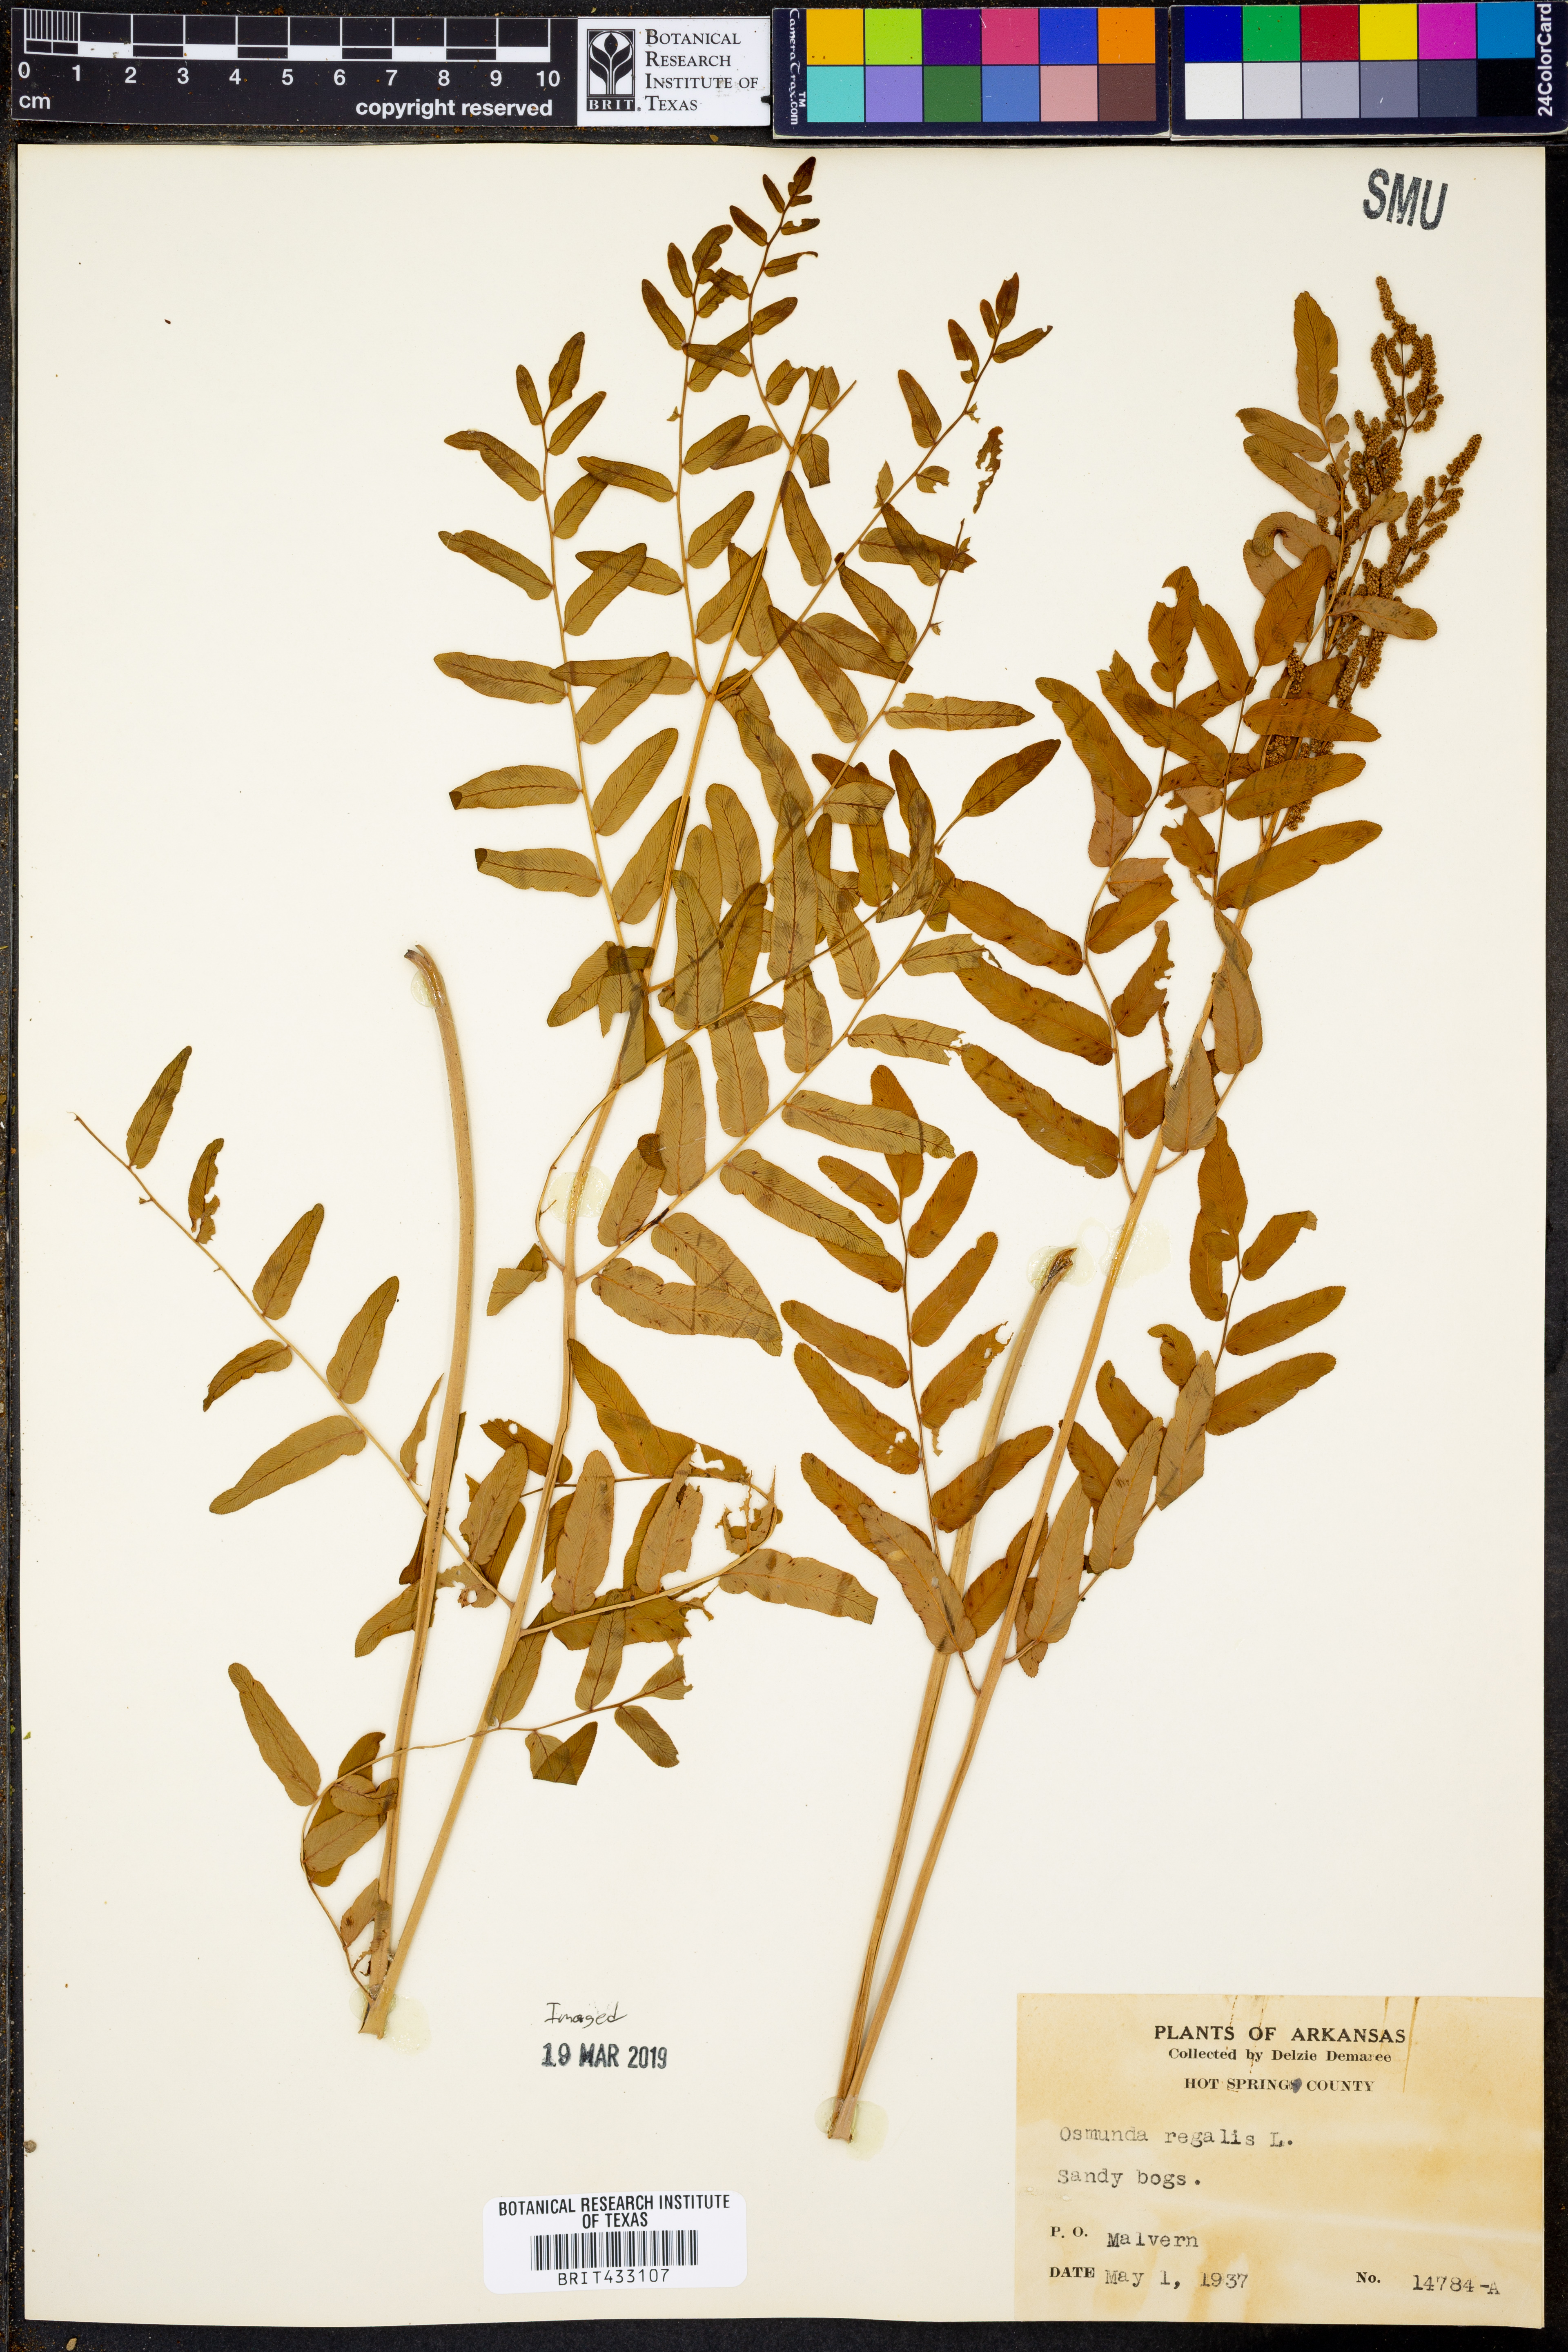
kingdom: Plantae
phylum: Tracheophyta
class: Polypodiopsida
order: Osmundales
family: Osmundaceae
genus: Osmunda
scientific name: Osmunda regalis
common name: Royal fern
